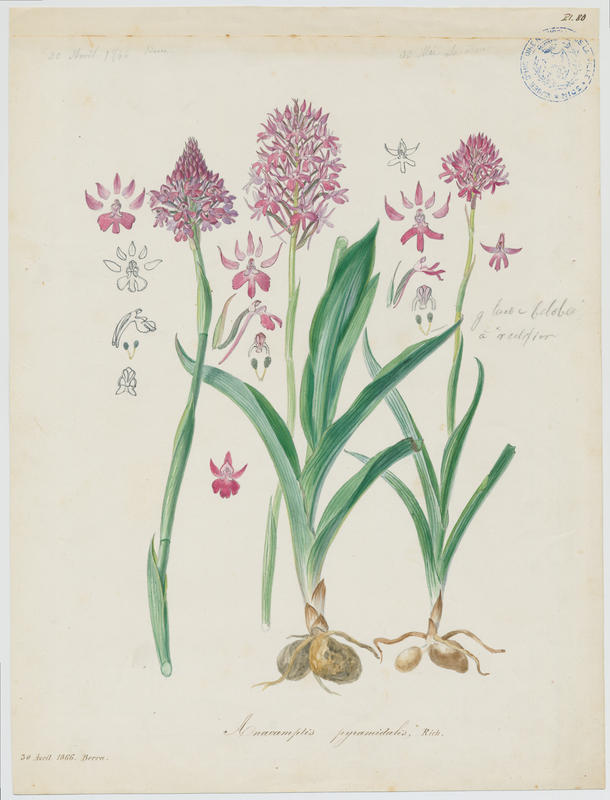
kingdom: Plantae
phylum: Tracheophyta
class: Liliopsida
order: Asparagales
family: Orchidaceae
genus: Anacamptis
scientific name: Anacamptis pyramidalis
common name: Pyramidal orchid
